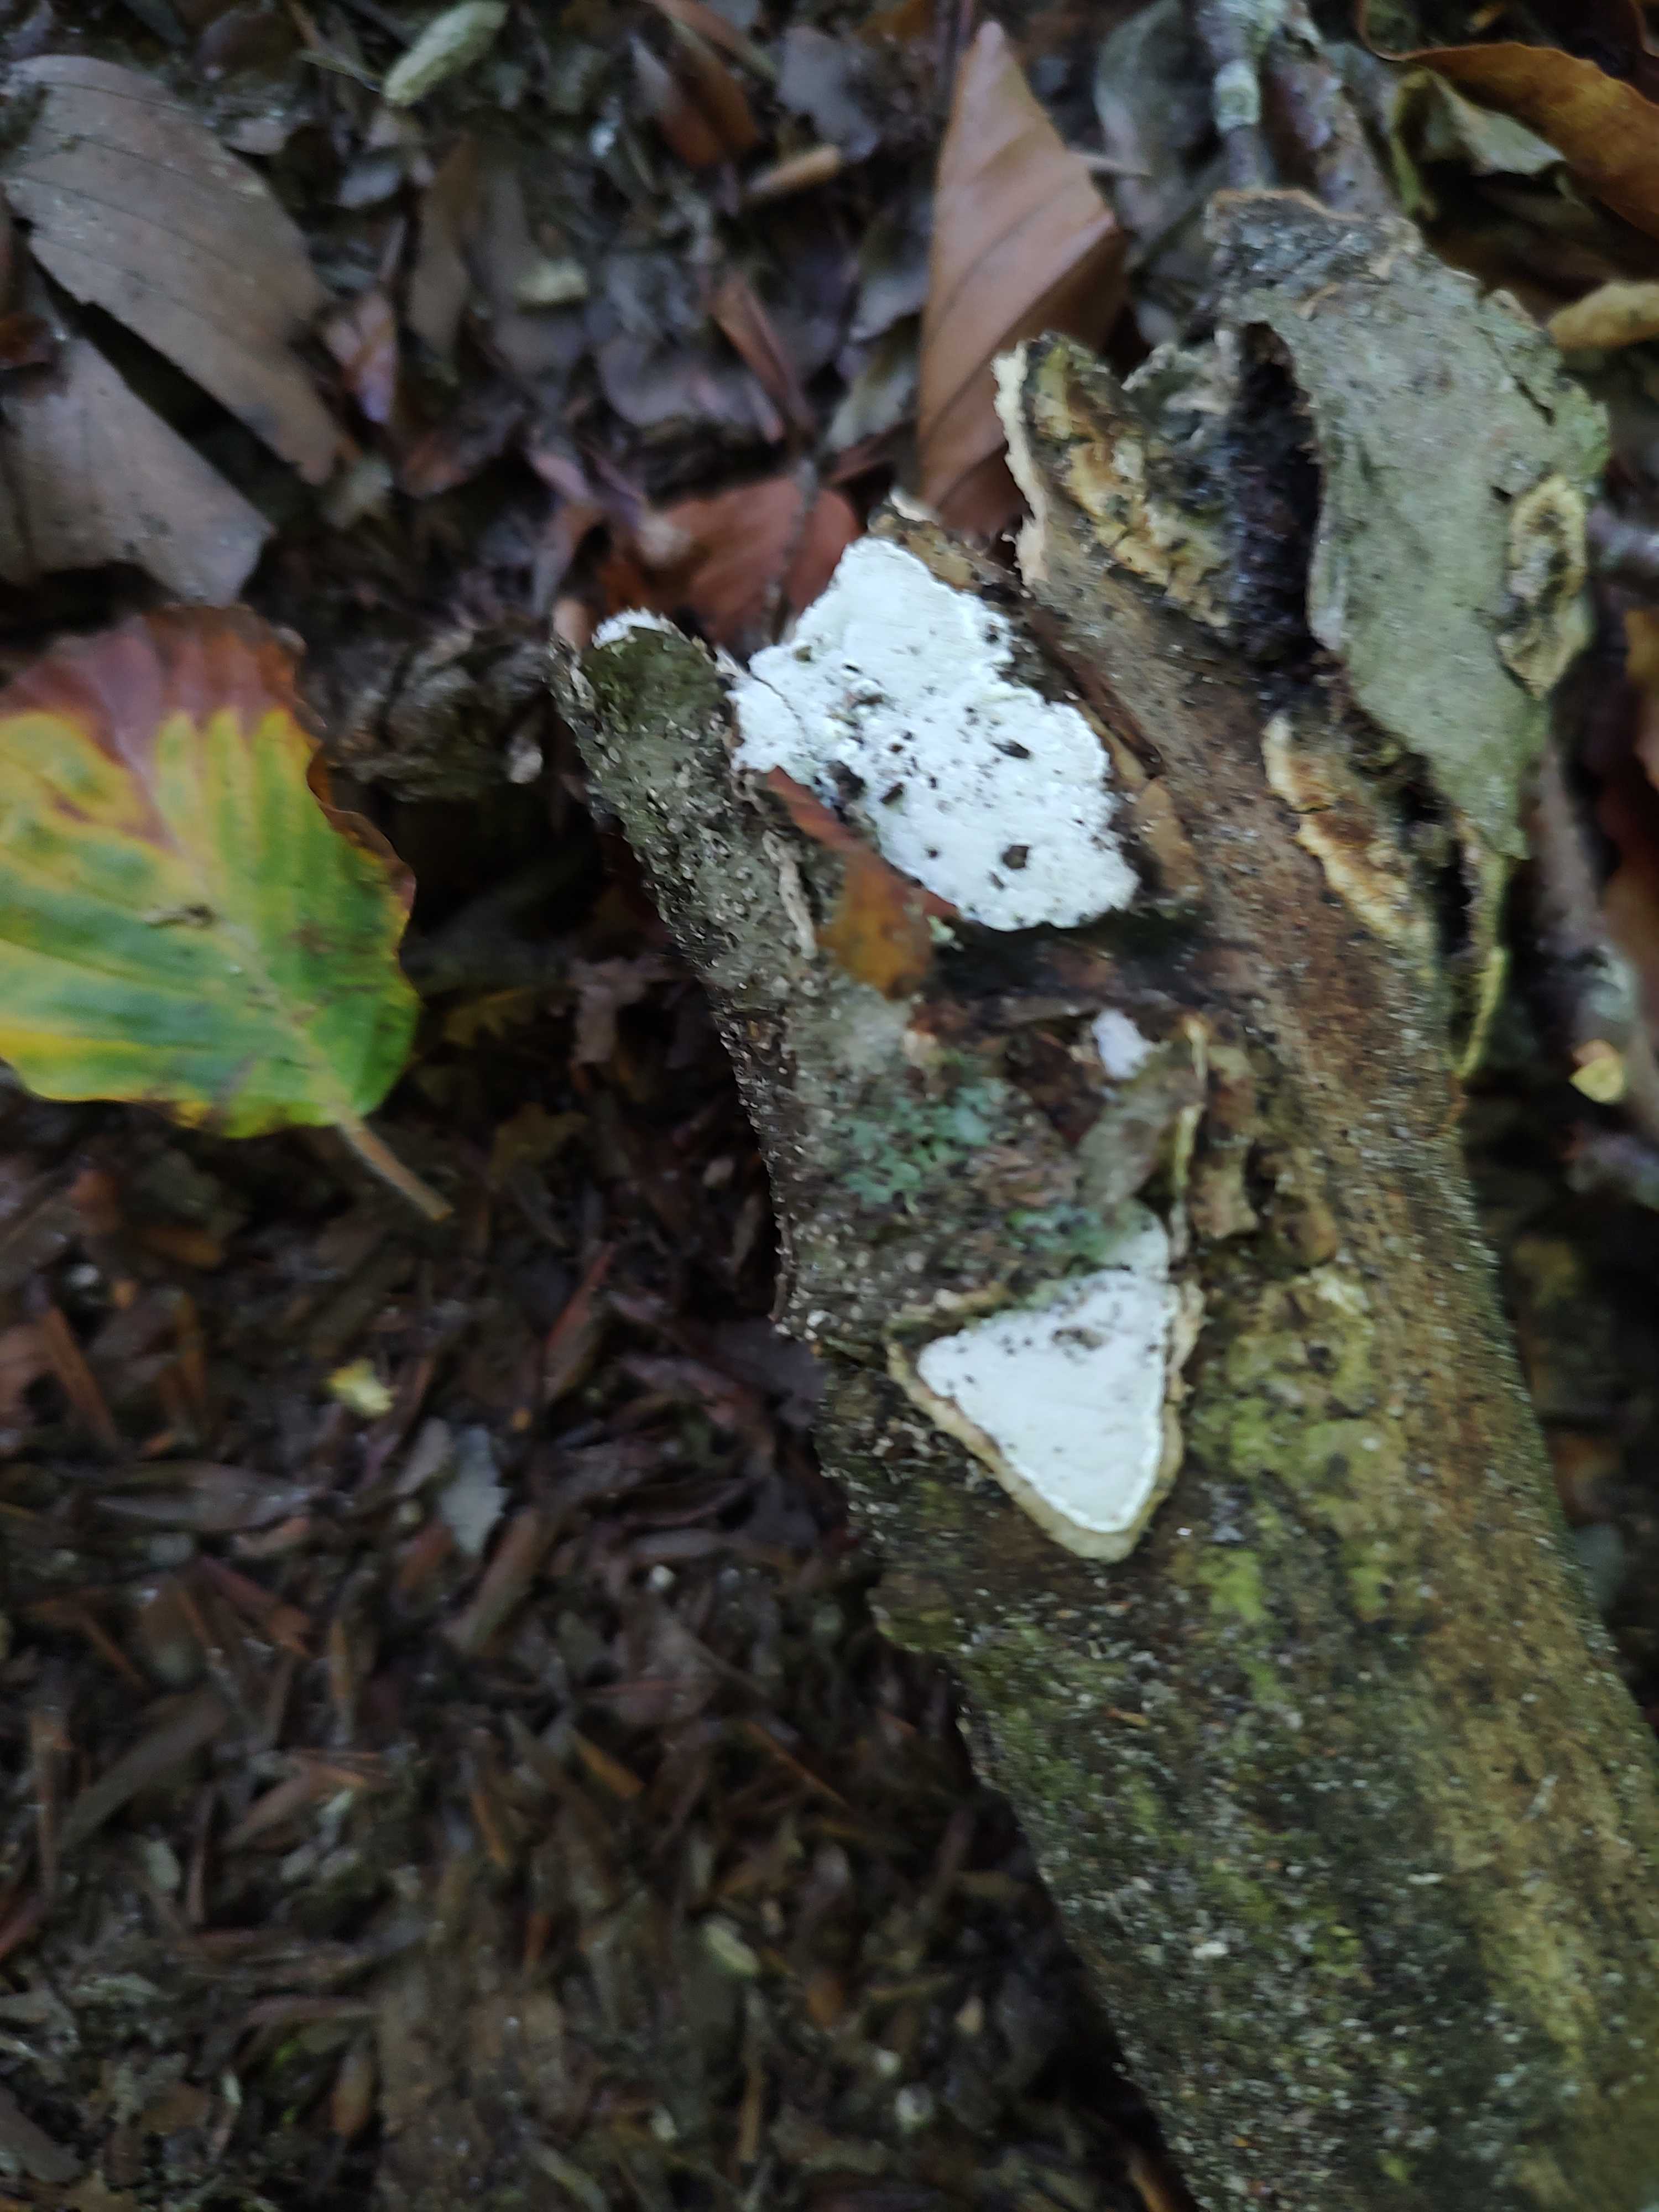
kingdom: Fungi
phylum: Basidiomycota
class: Agaricomycetes
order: Polyporales
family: Incrustoporiaceae
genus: Skeletocutis
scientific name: Skeletocutis nemoralis
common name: stor krystalporesvamp
